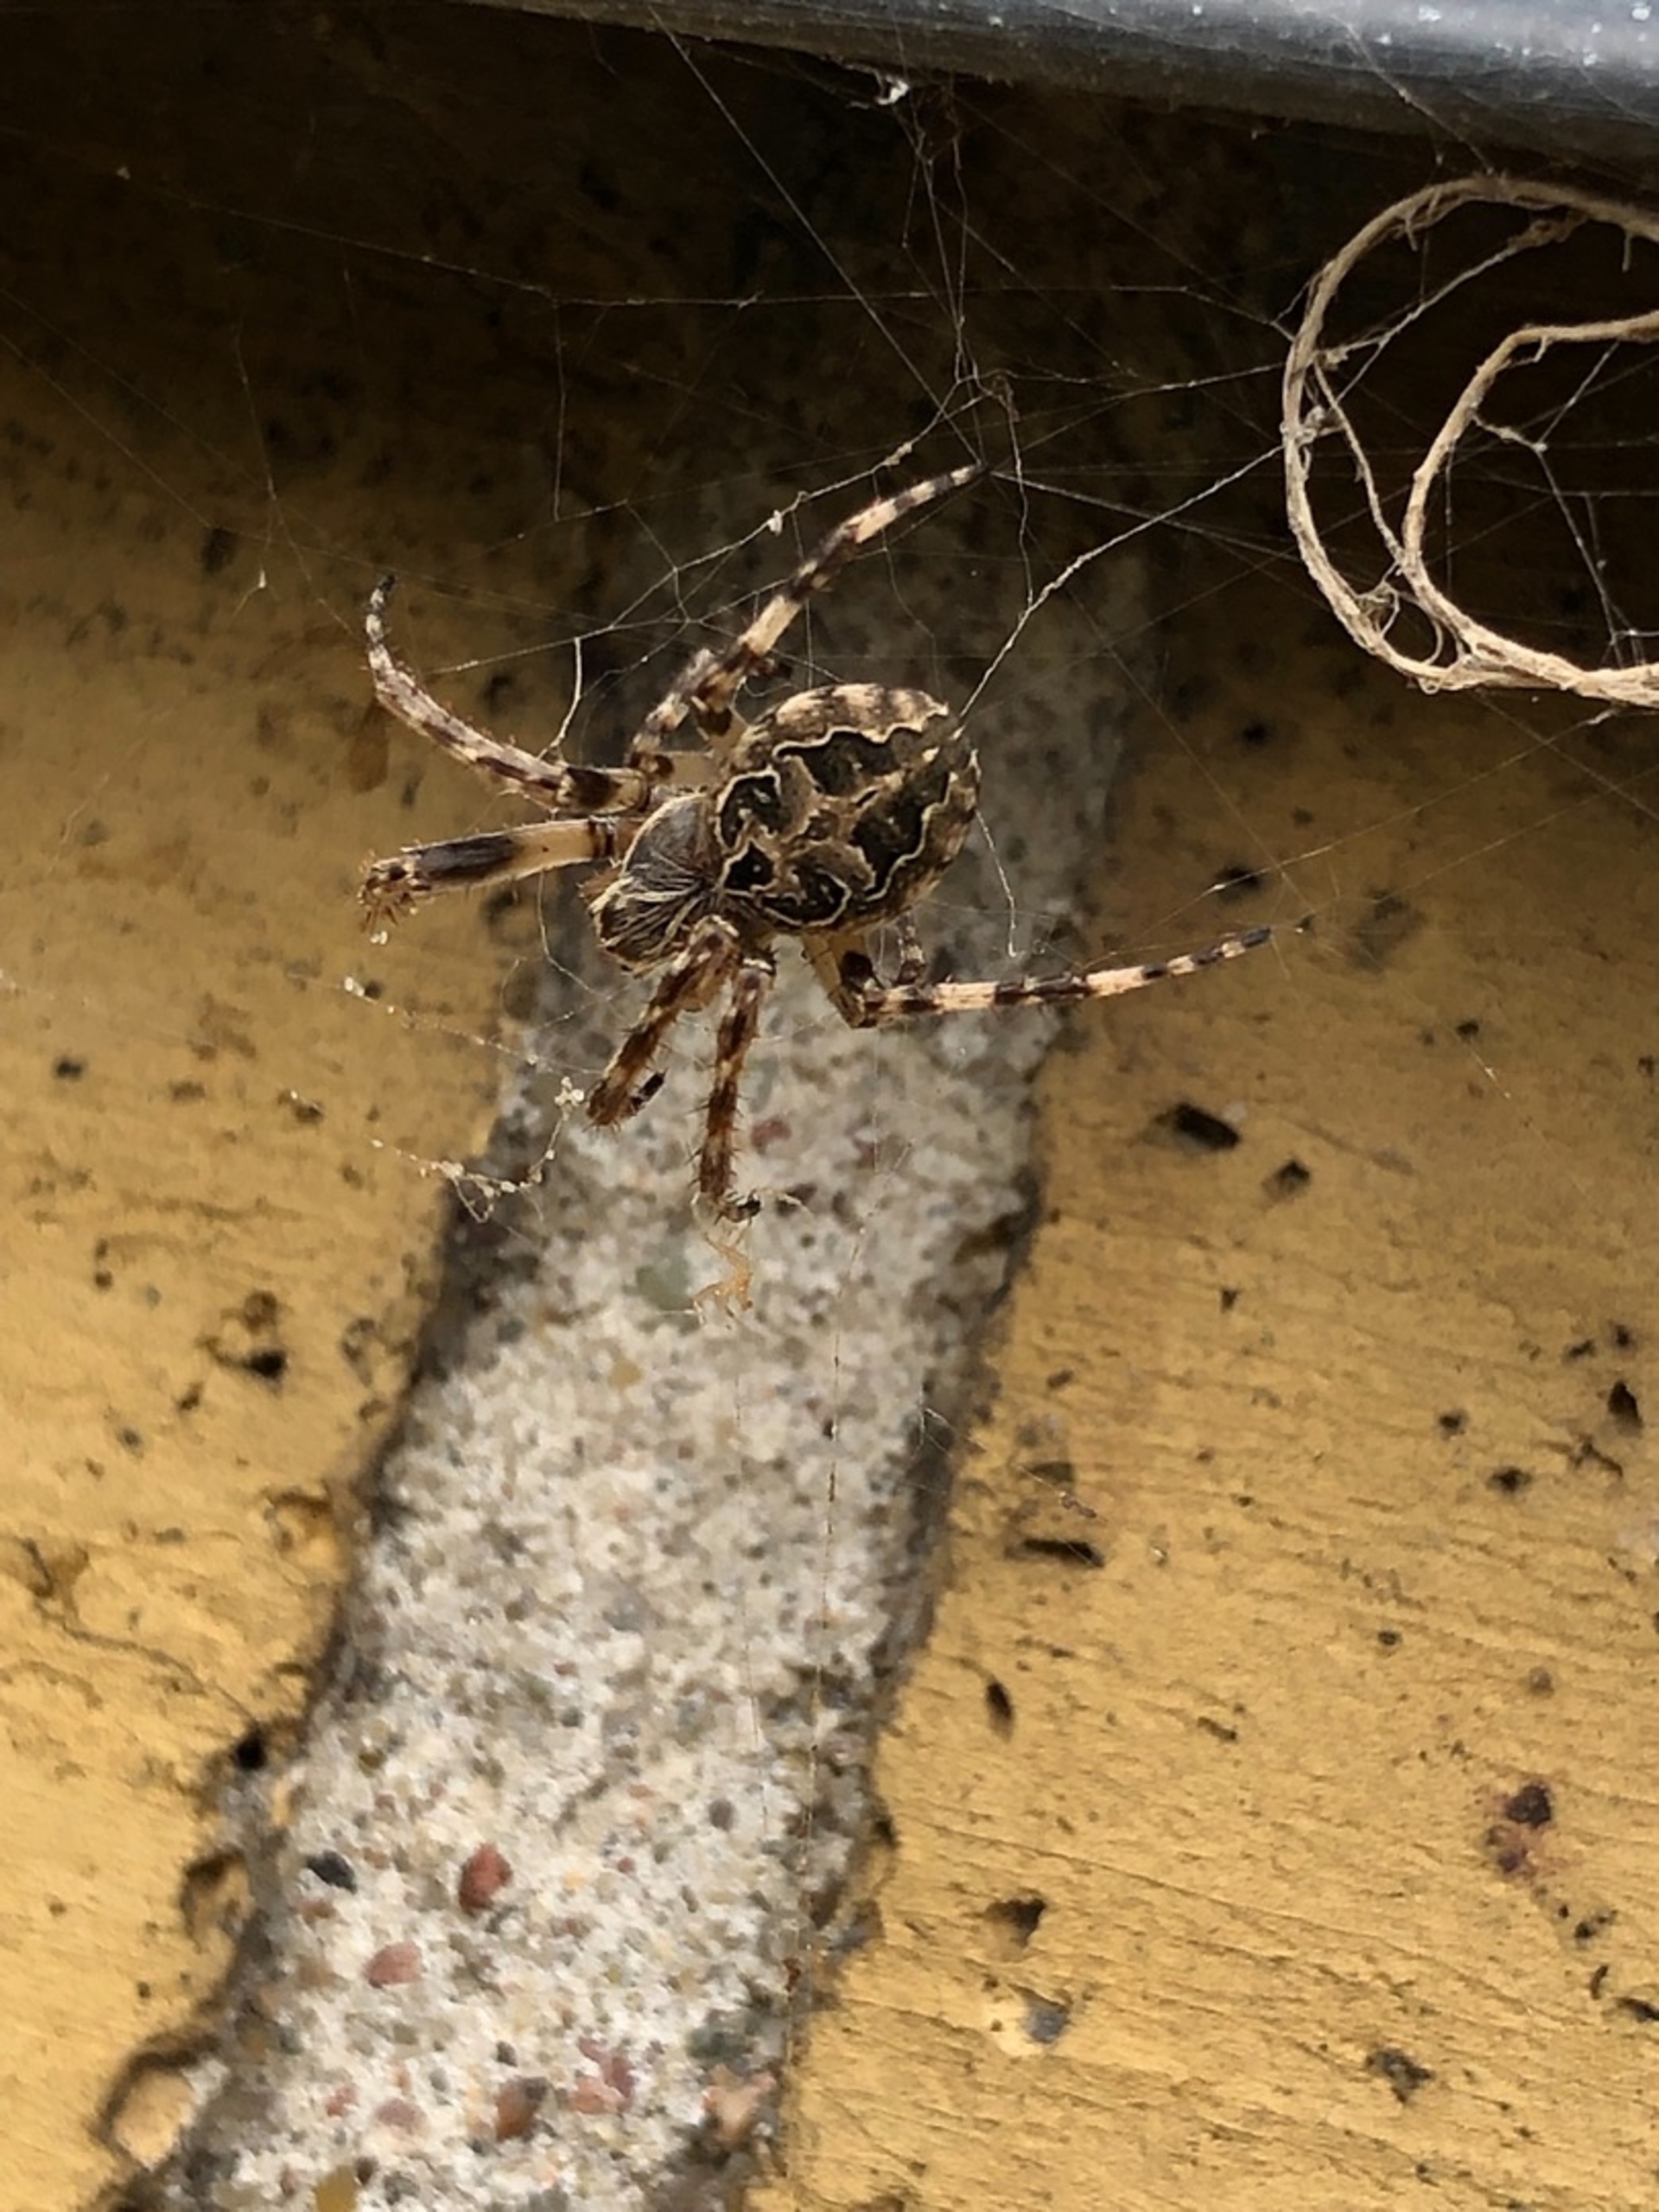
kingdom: Animalia
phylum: Arthropoda
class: Arachnida
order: Araneae
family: Araneidae
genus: Larinioides
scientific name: Larinioides sclopetarius
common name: Bolværksedderkop
